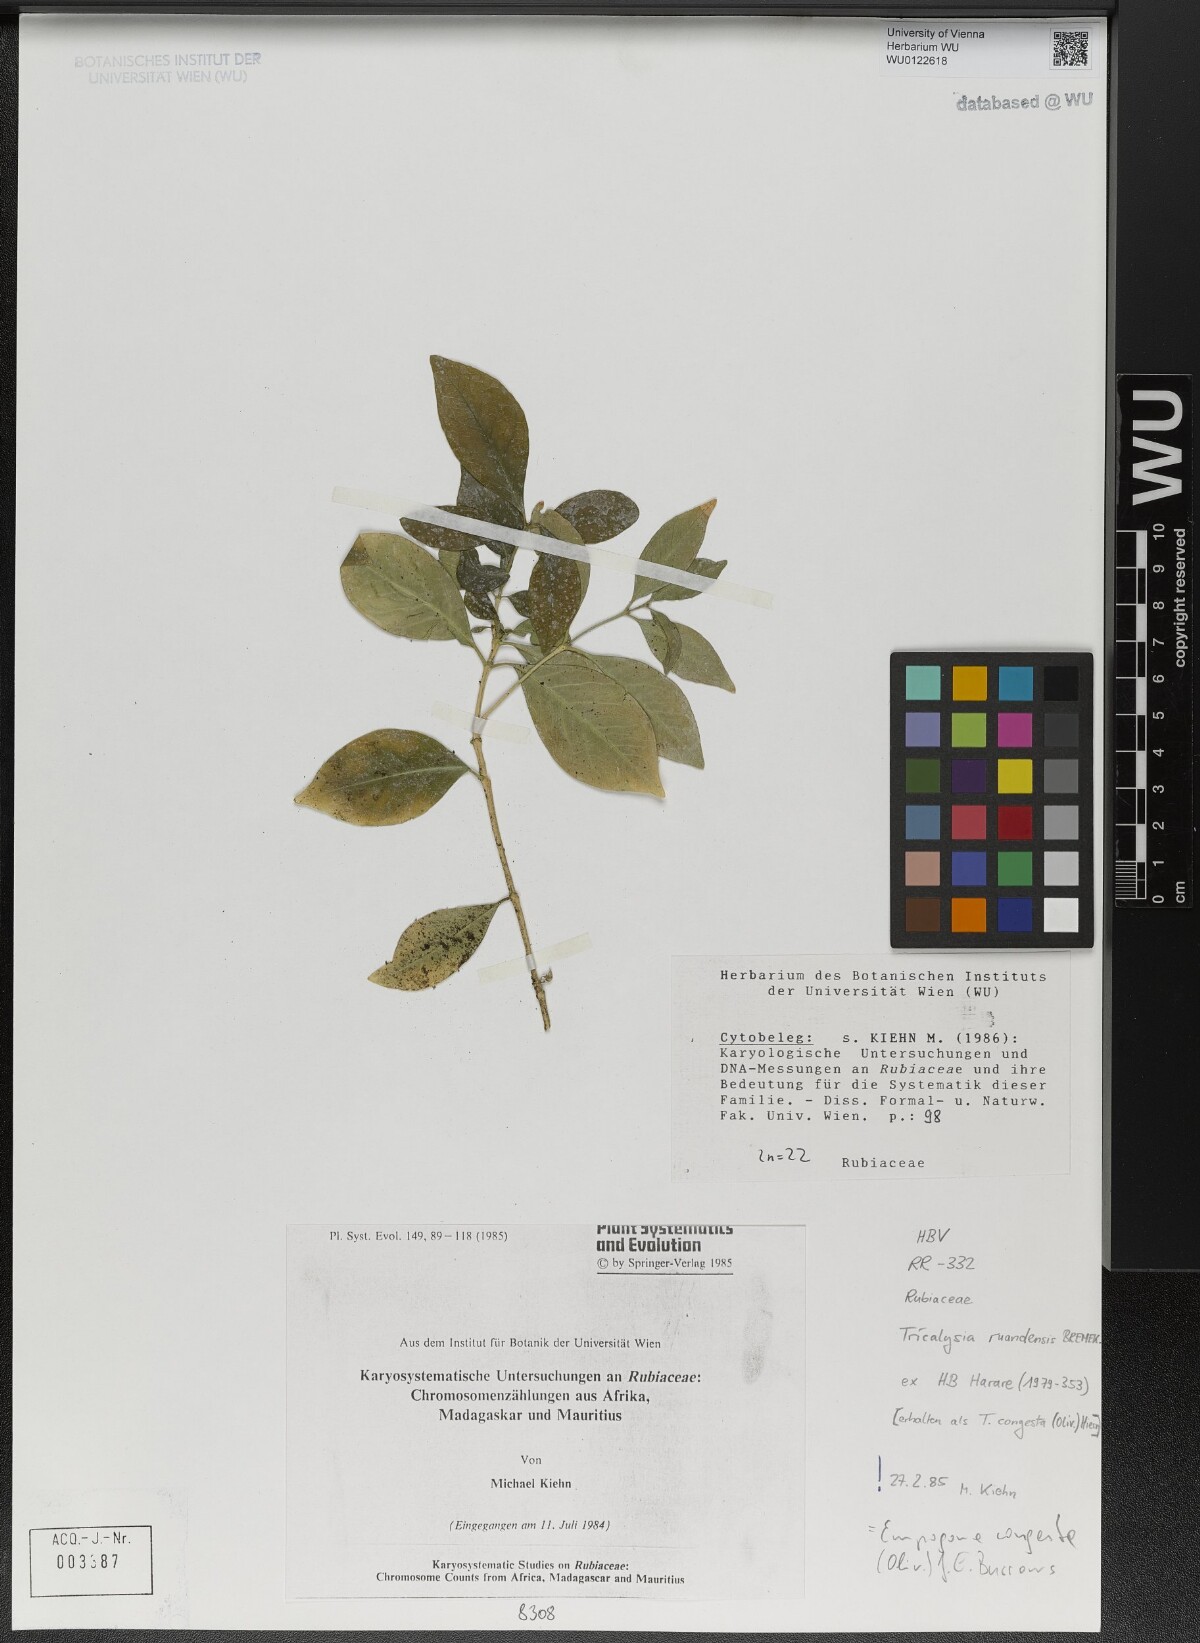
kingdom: Plantae
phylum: Tracheophyta
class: Magnoliopsida
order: Gentianales
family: Rubiaceae
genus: Empogona
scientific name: Empogona congesta
